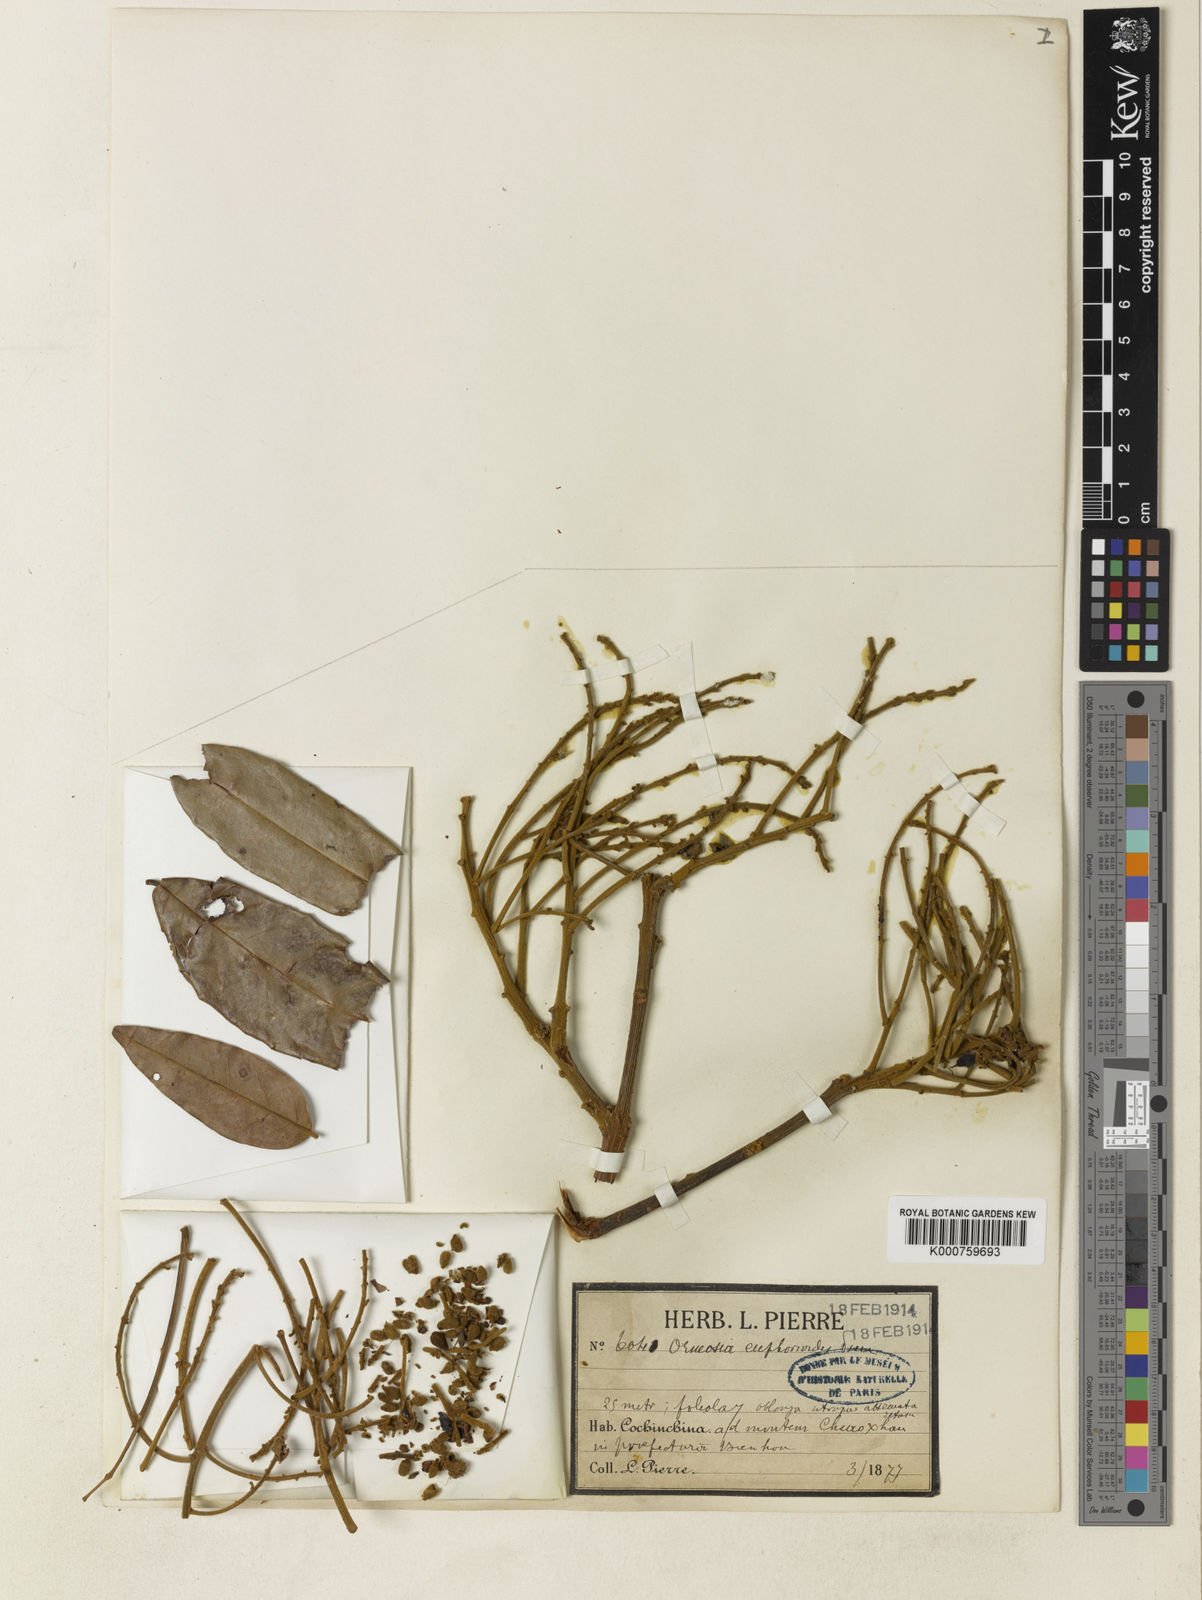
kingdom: Plantae
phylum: Tracheophyta
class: Magnoliopsida
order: Fabales
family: Fabaceae
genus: Ormosia
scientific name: Ormosia
